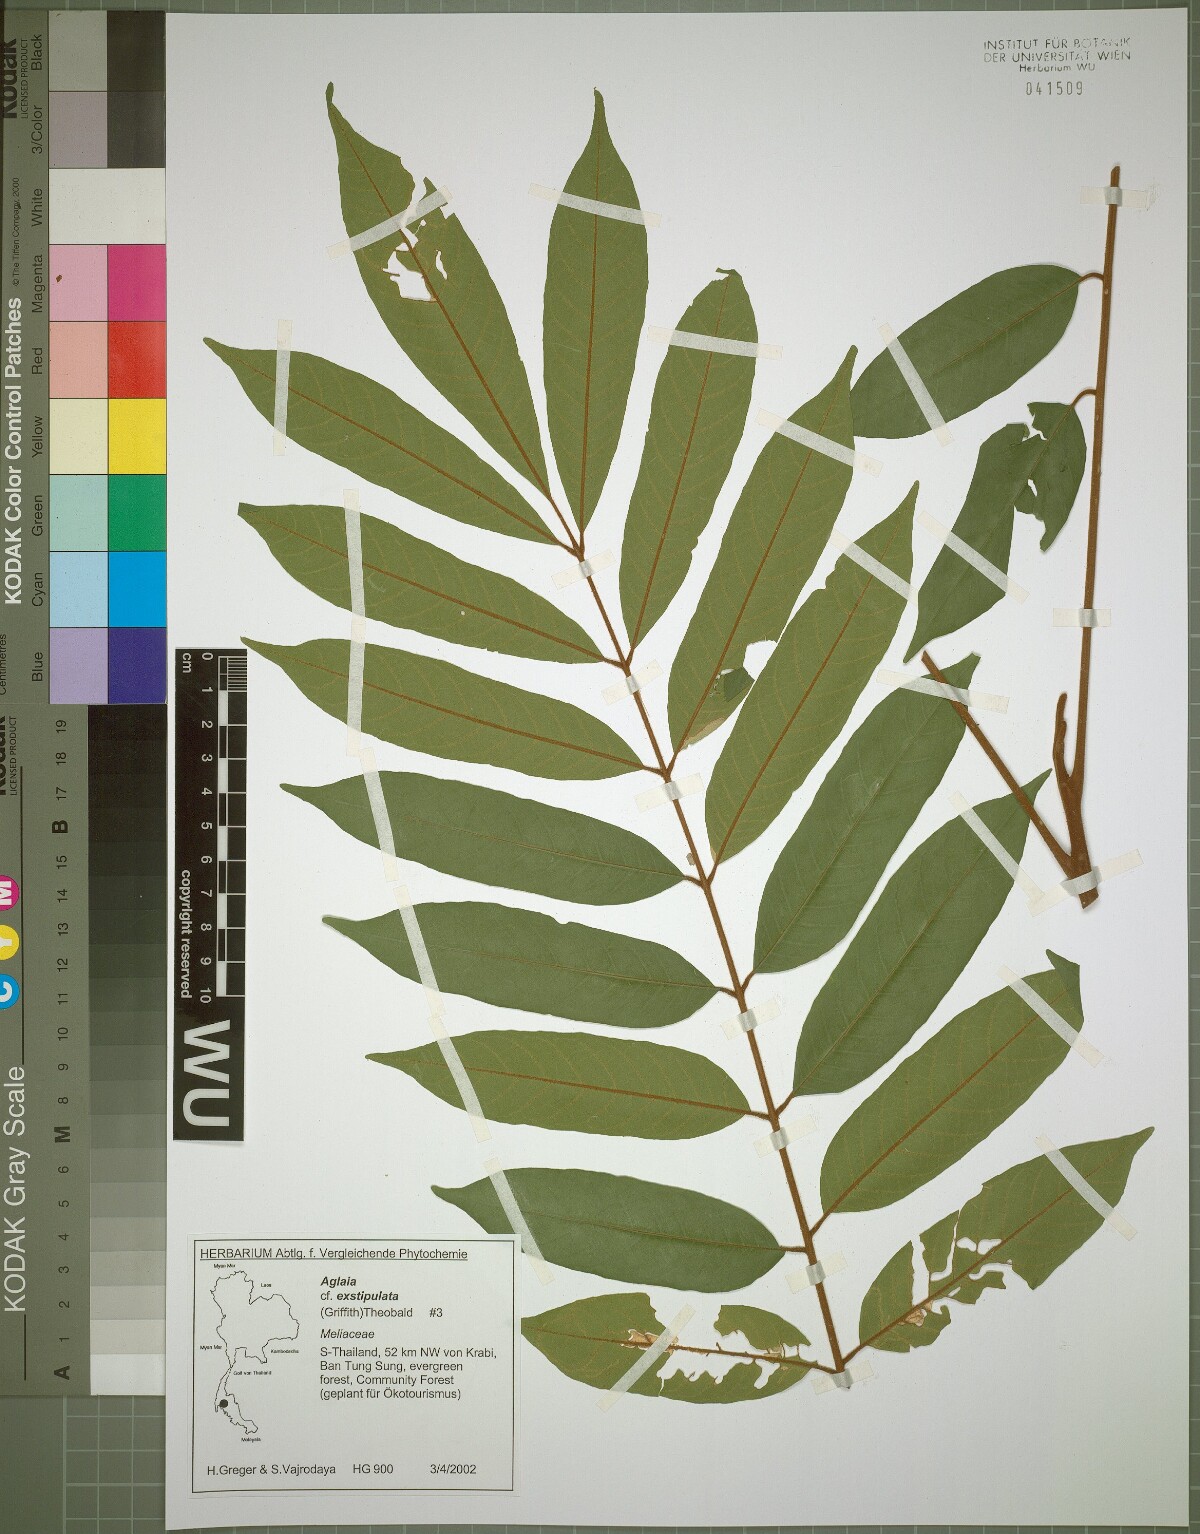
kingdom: Plantae
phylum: Tracheophyta
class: Magnoliopsida
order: Sapindales
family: Meliaceae
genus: Aglaia
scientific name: Aglaia exstipulata
